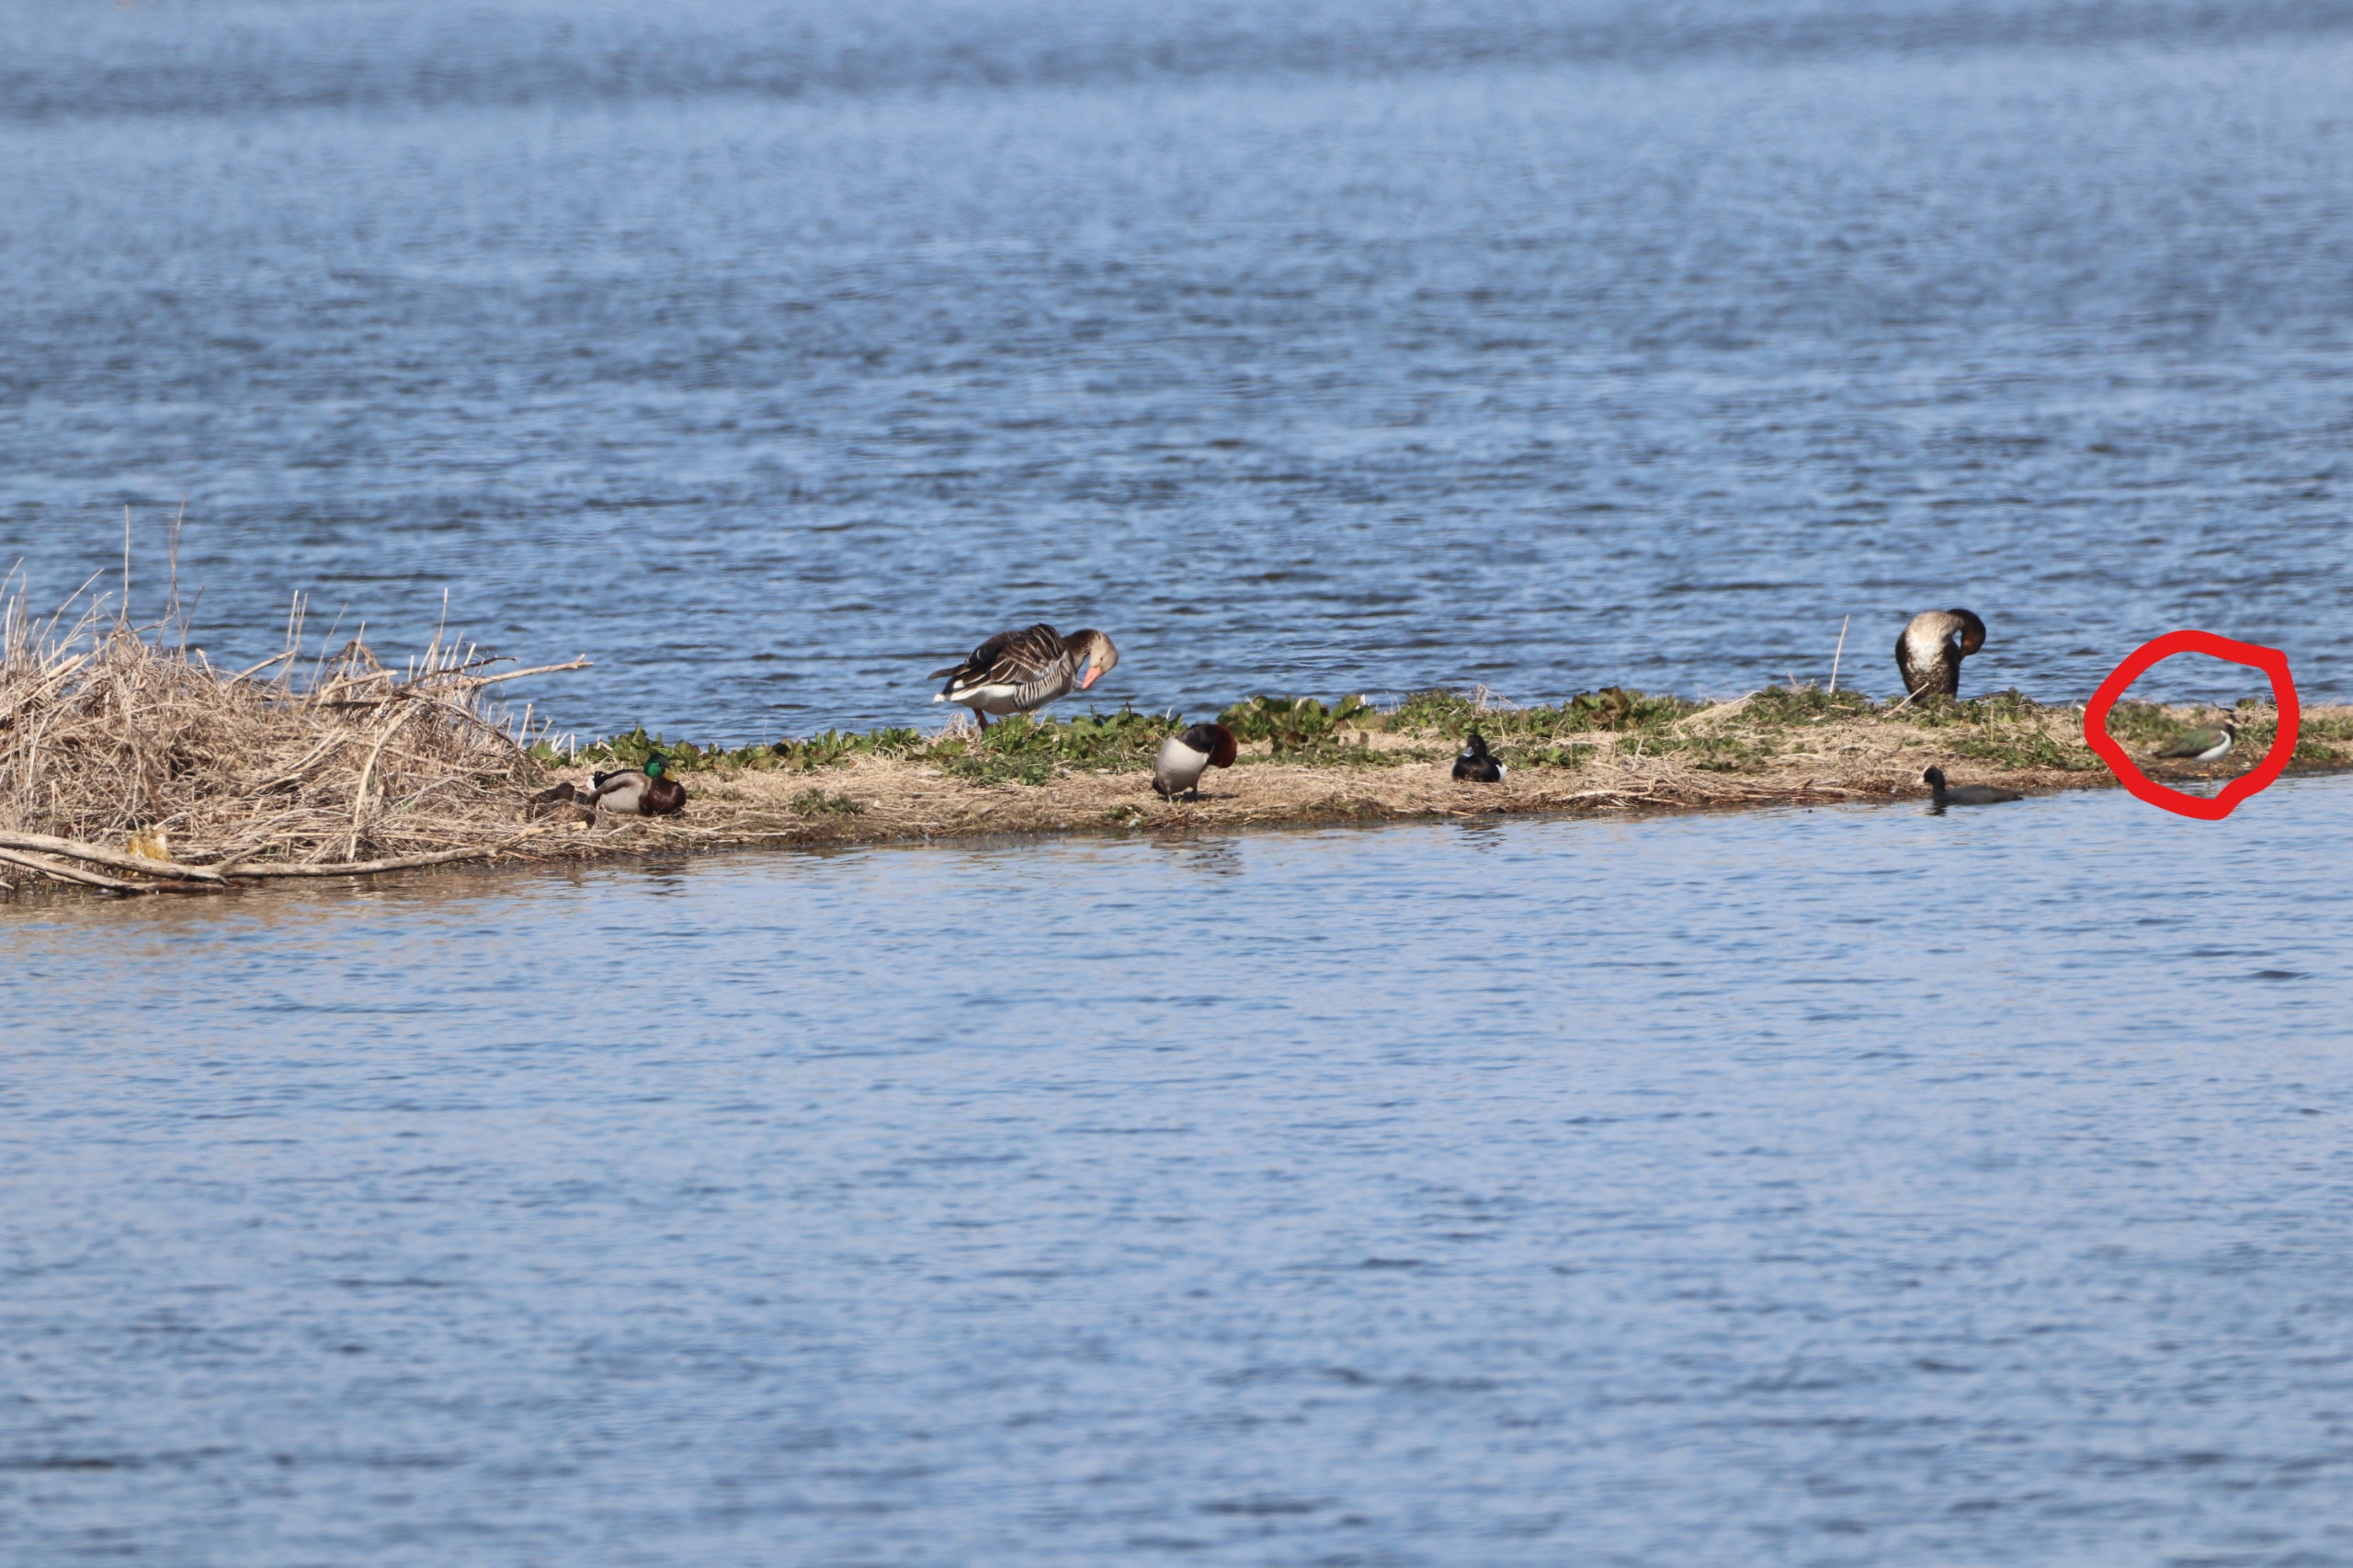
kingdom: Animalia
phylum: Chordata
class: Aves
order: Charadriiformes
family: Charadriidae
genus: Vanellus
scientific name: Vanellus vanellus
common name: Vibe
